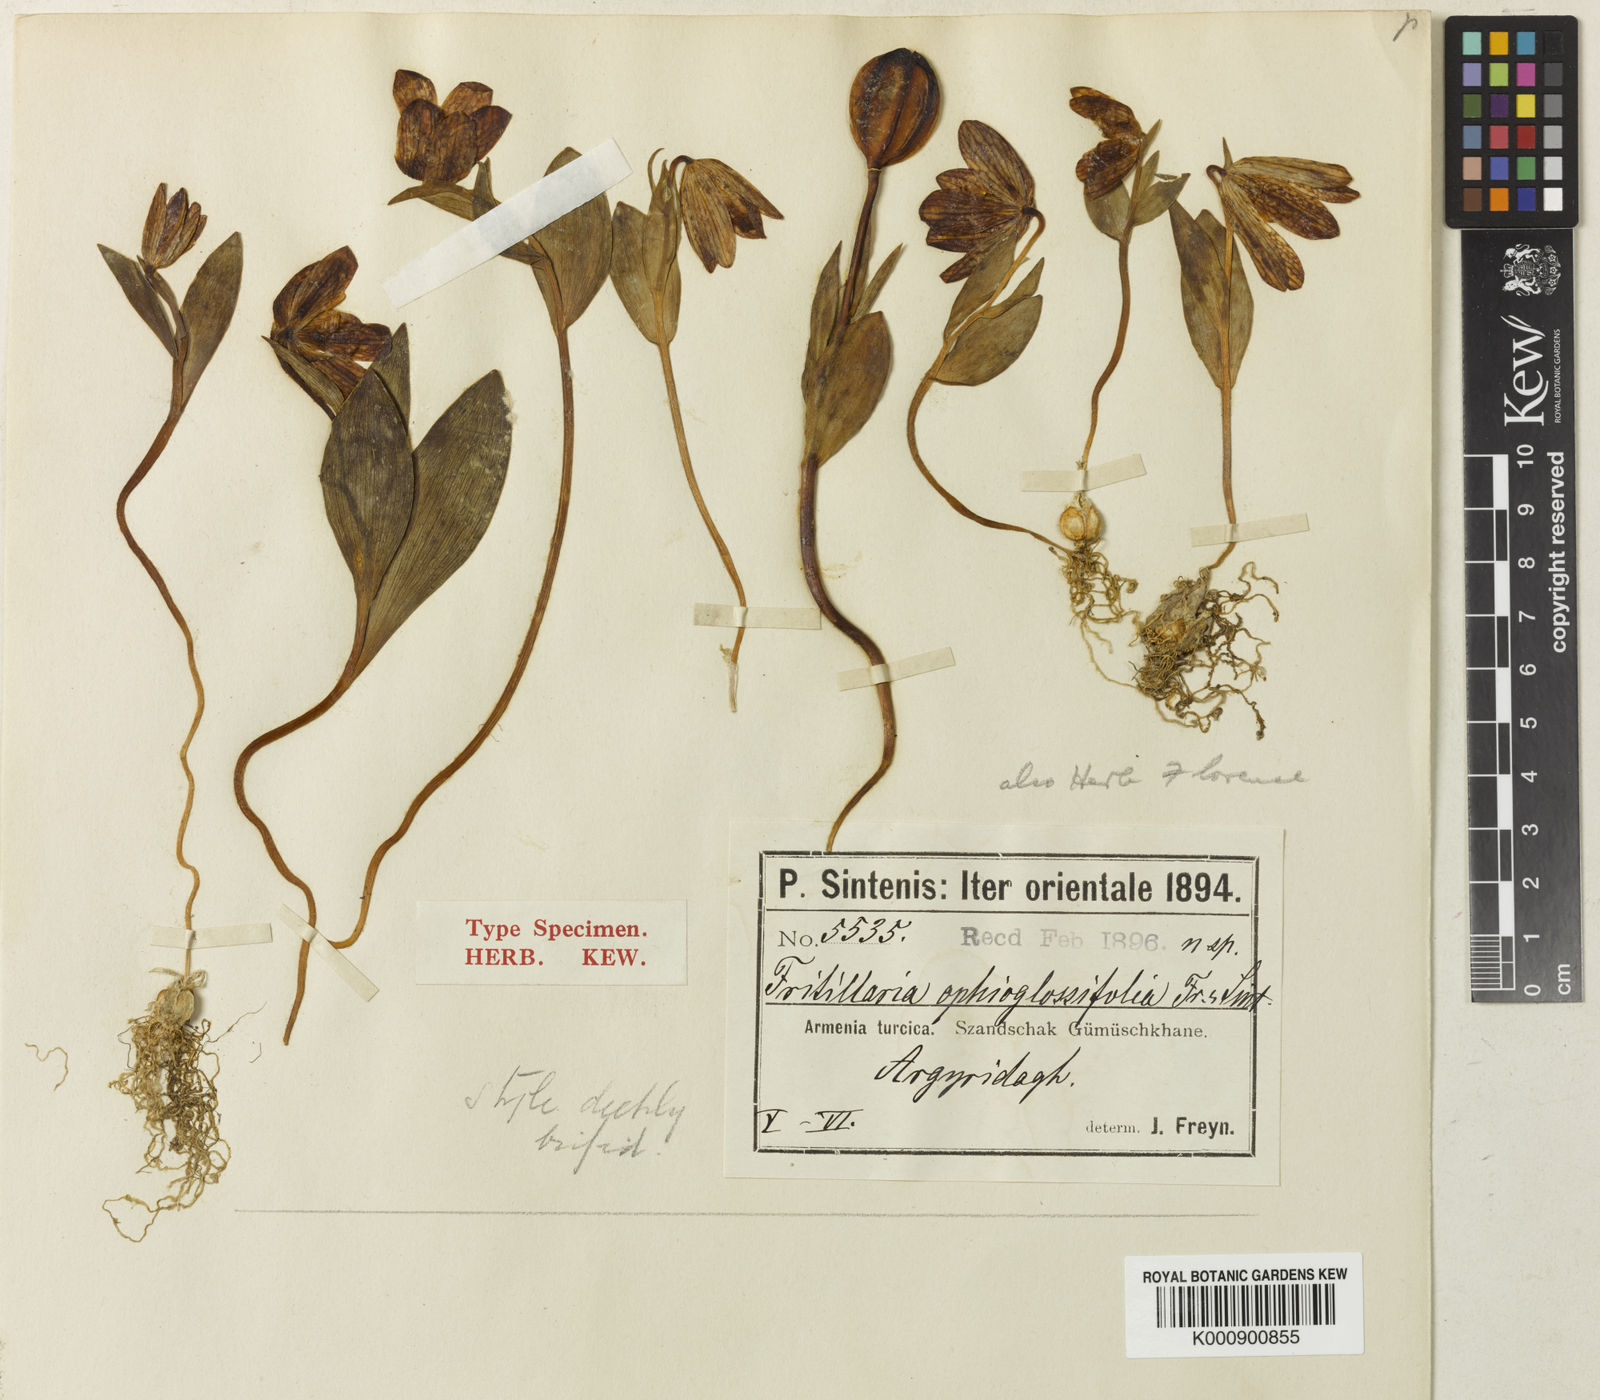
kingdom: Plantae
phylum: Tracheophyta
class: Liliopsida
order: Liliales
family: Liliaceae
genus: Fritillaria
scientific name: Fritillaria latifolia
